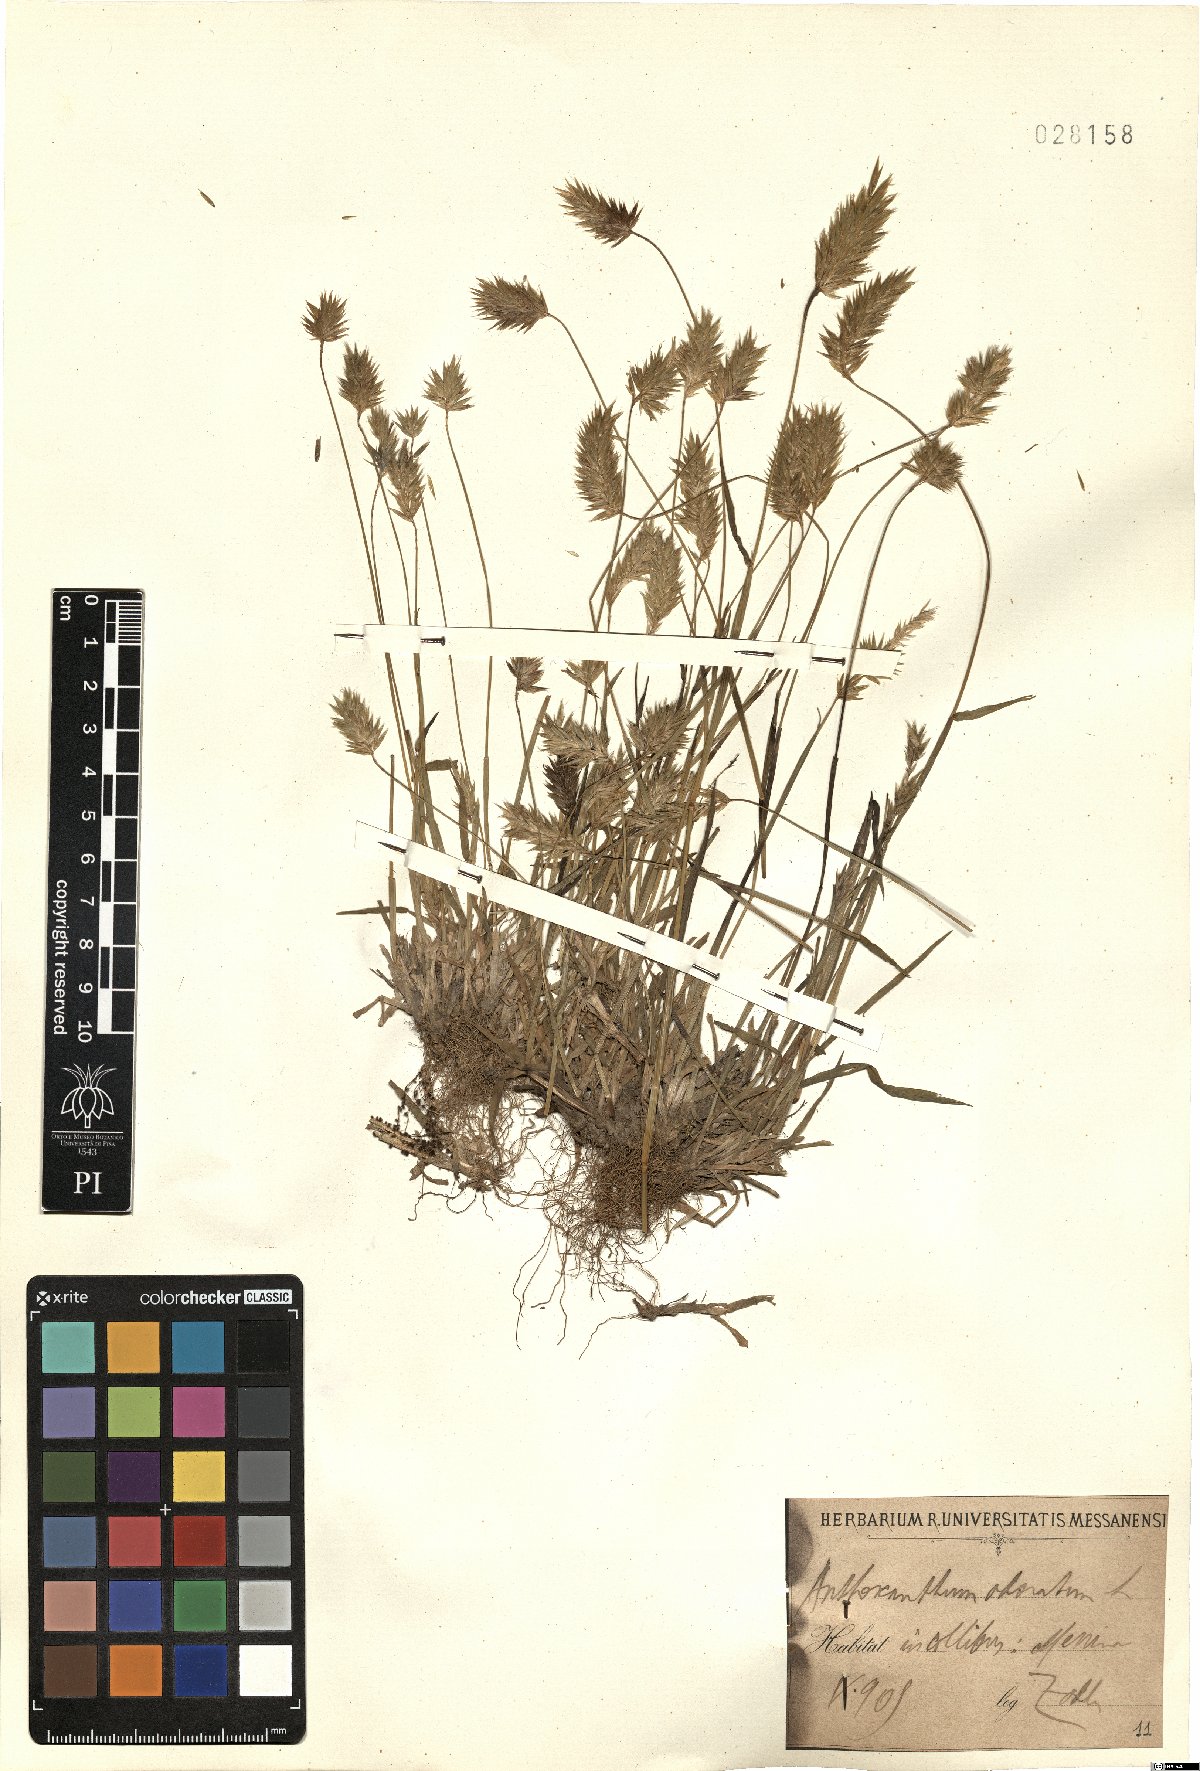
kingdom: Plantae
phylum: Tracheophyta
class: Liliopsida
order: Poales
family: Poaceae
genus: Anthoxanthum
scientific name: Anthoxanthum odoratum
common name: Sweet vernalgrass
